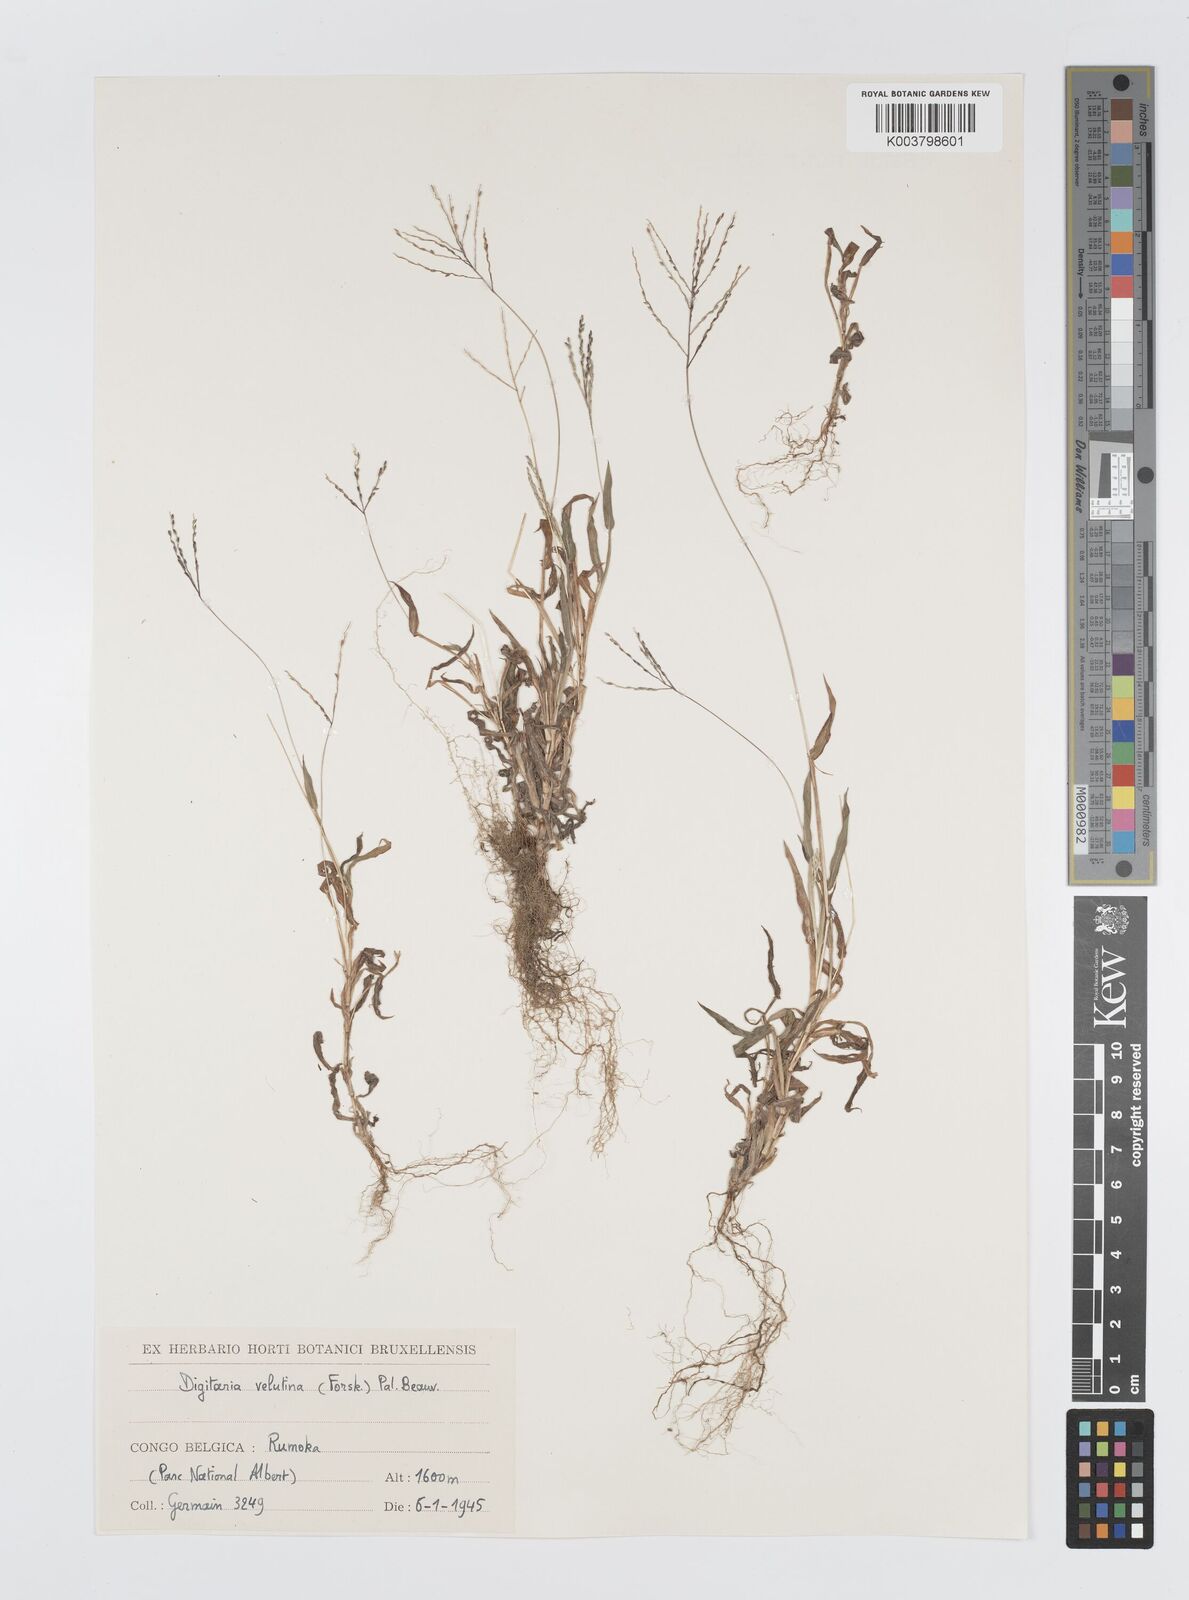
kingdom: Plantae
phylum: Tracheophyta
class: Liliopsida
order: Poales
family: Poaceae
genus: Digitaria
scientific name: Digitaria velutina
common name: Long-plume finger grass
